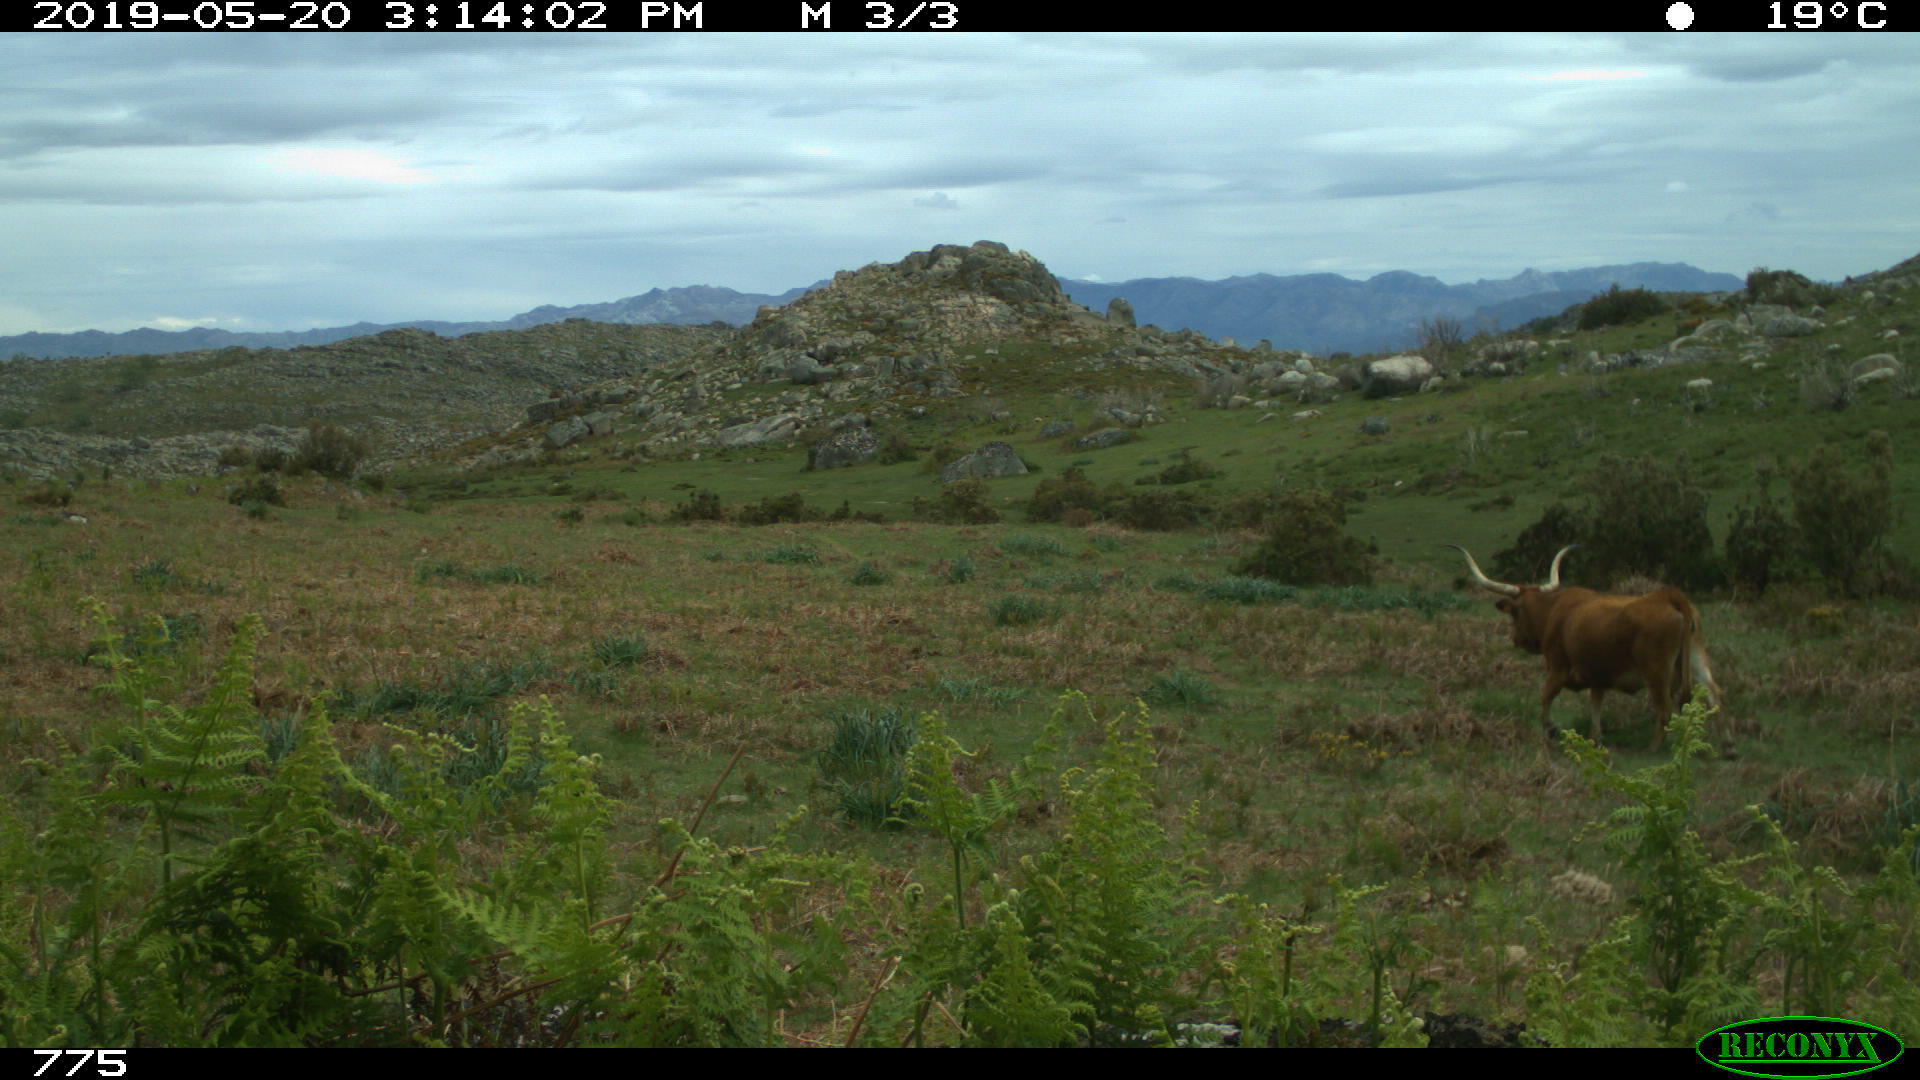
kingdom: Animalia
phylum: Chordata
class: Mammalia
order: Artiodactyla
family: Bovidae
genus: Bos
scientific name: Bos taurus
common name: Domesticated cattle
